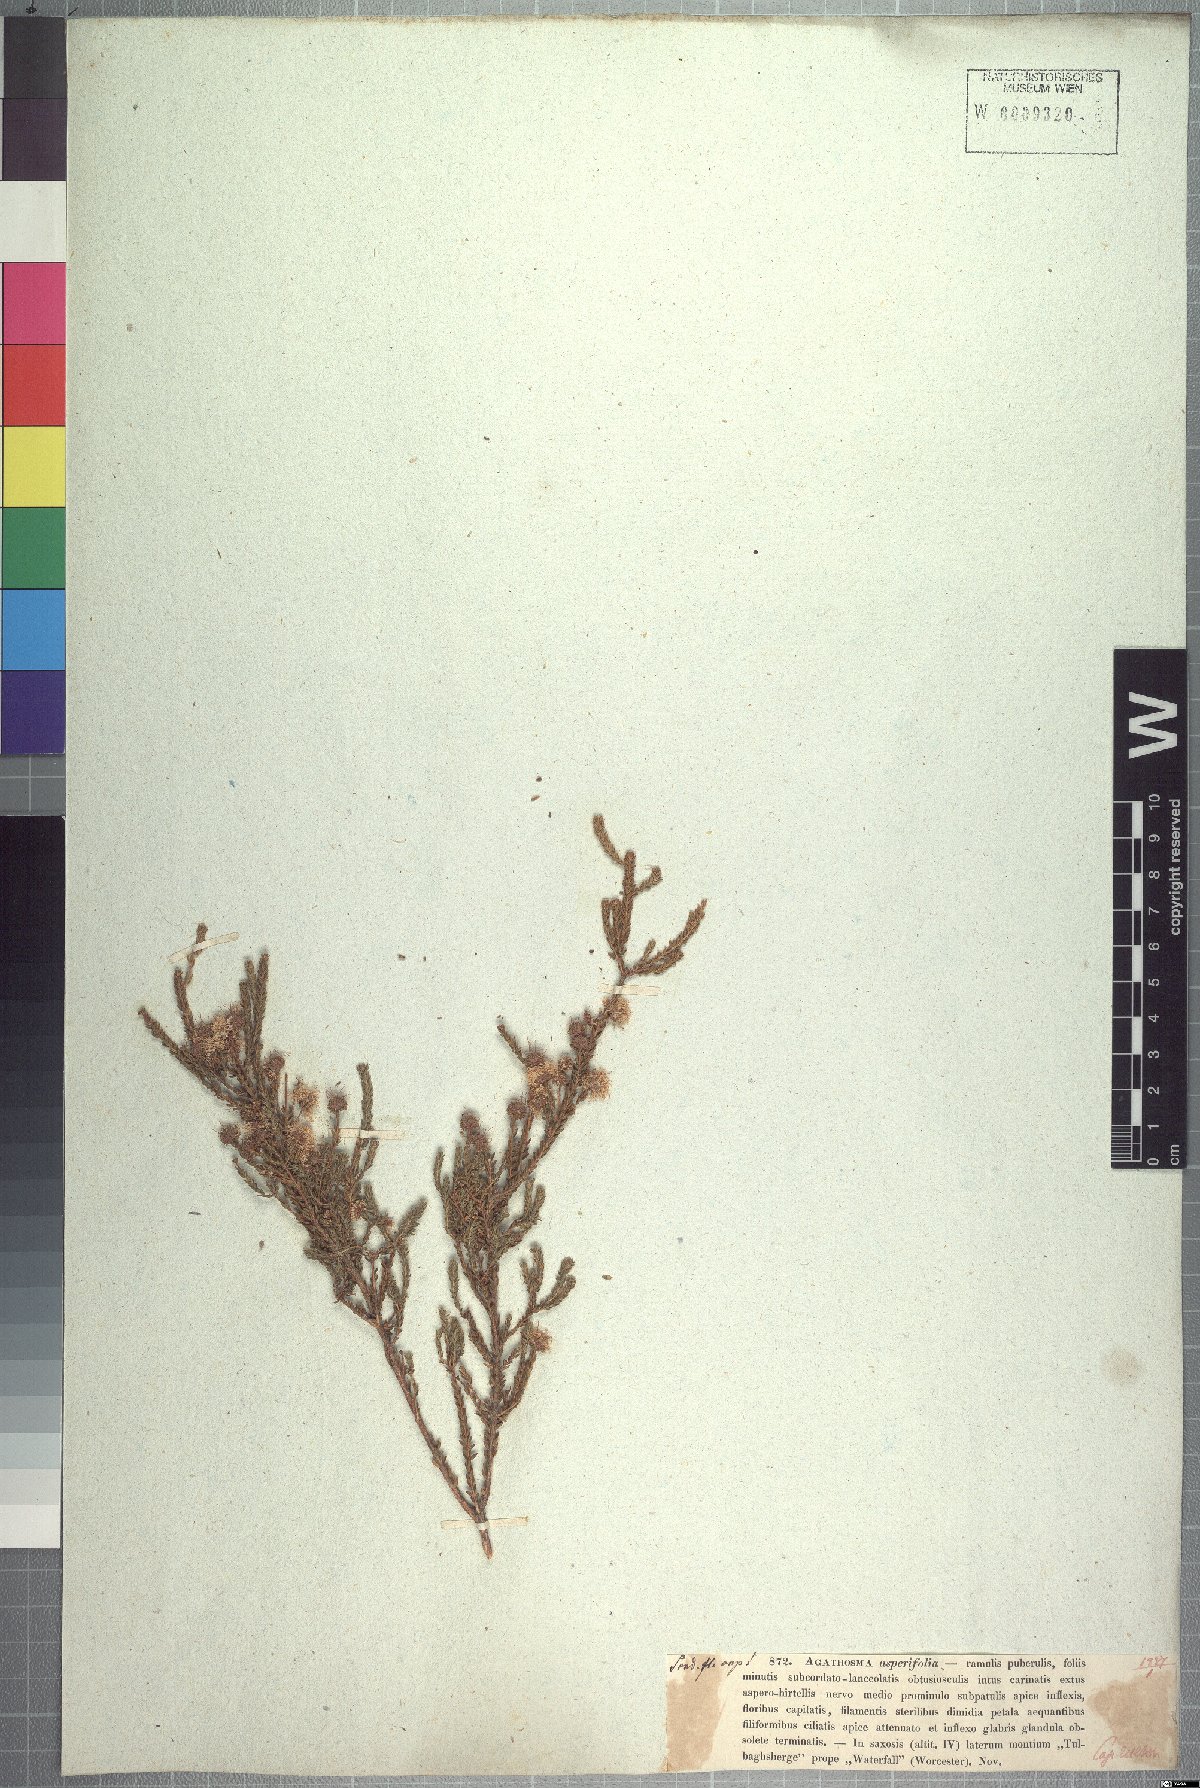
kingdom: Plantae
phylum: Tracheophyta
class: Magnoliopsida
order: Sapindales
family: Rutaceae
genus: Agathosma
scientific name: Agathosma asperifolia
